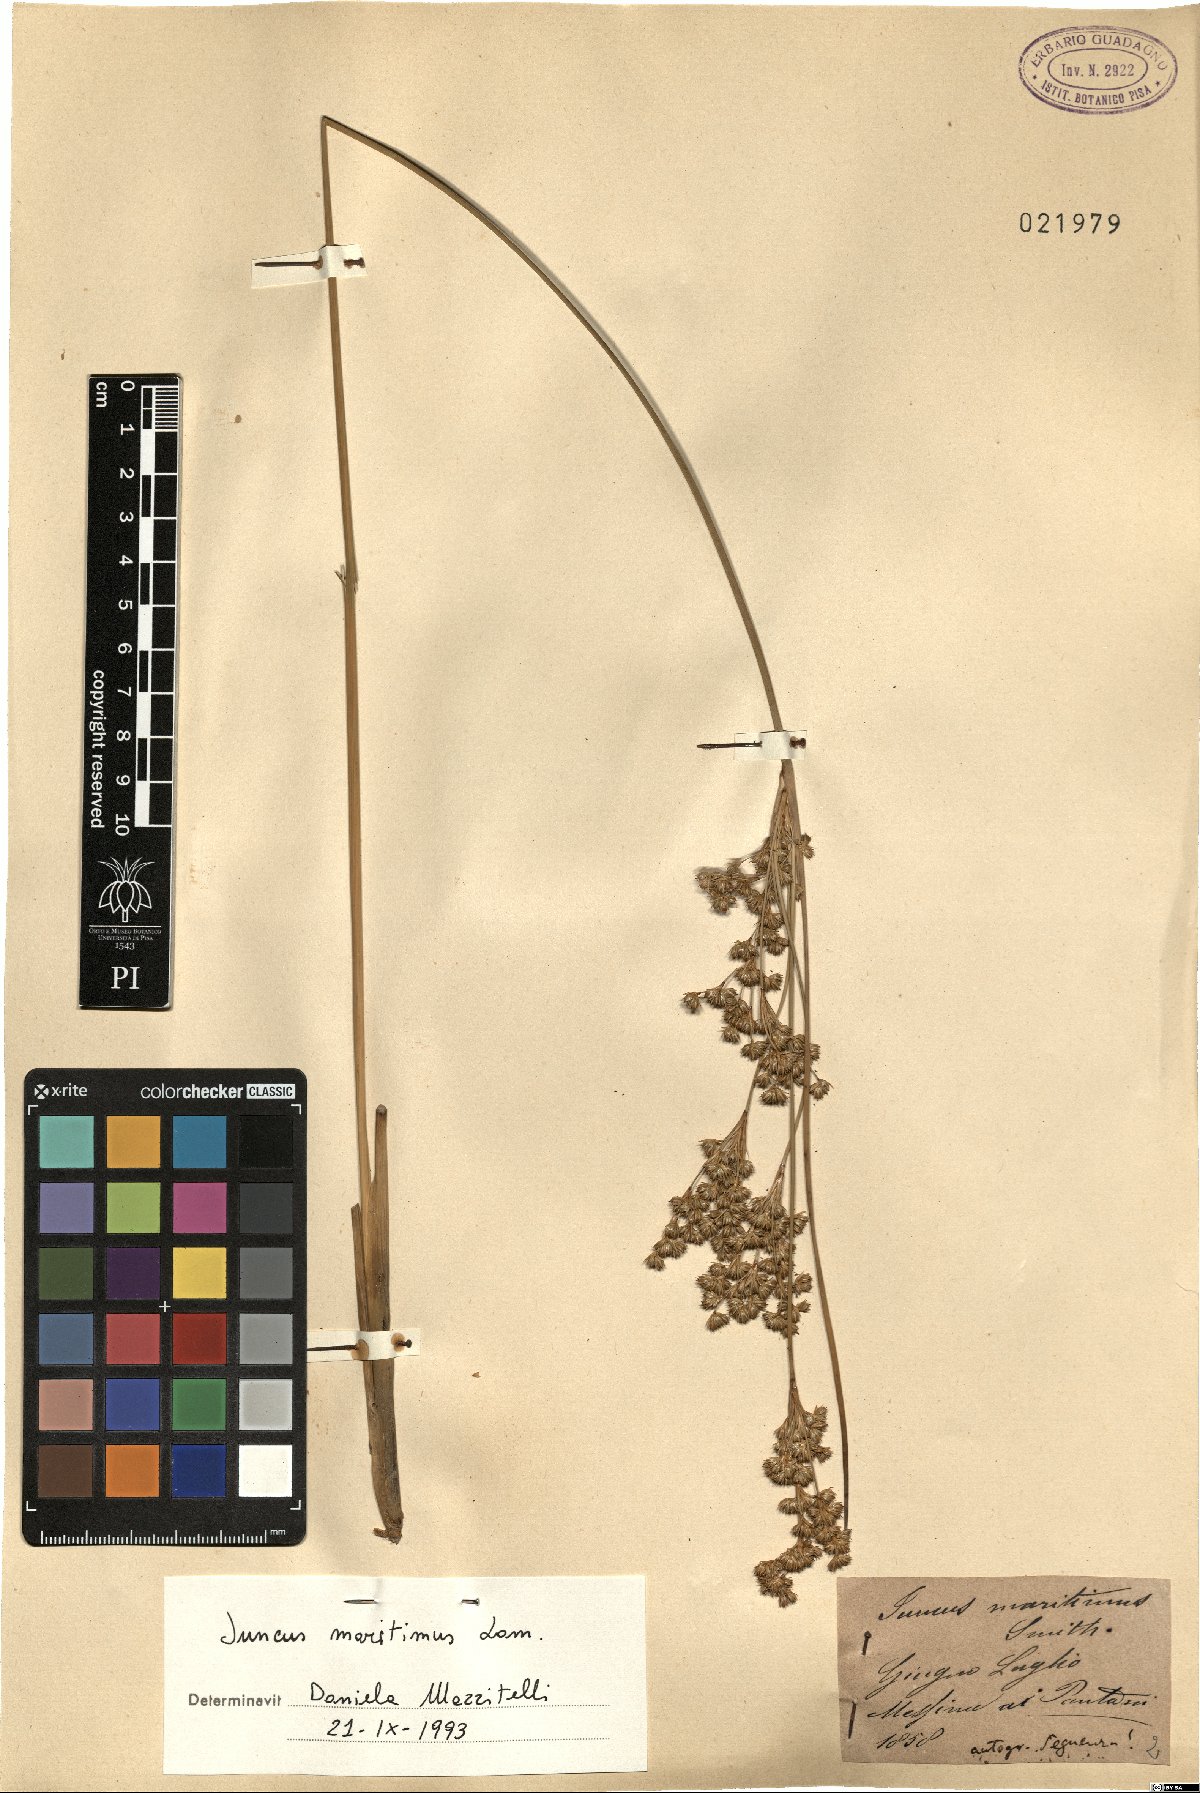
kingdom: Plantae
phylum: Tracheophyta
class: Liliopsida
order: Poales
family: Juncaceae
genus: Juncus
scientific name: Juncus maritimus
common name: Sea rush
